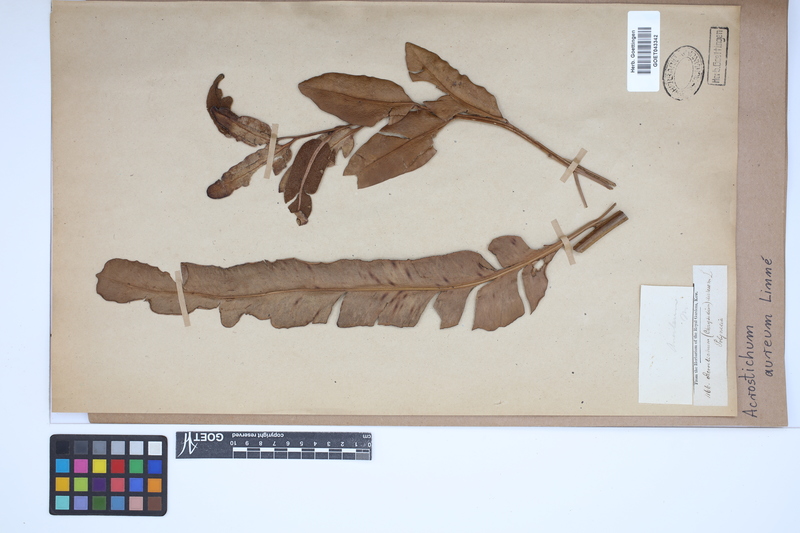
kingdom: Plantae
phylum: Tracheophyta
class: Polypodiopsida
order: Polypodiales
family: Pteridaceae
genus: Acrostichum
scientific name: Acrostichum aureum
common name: Leather fern
